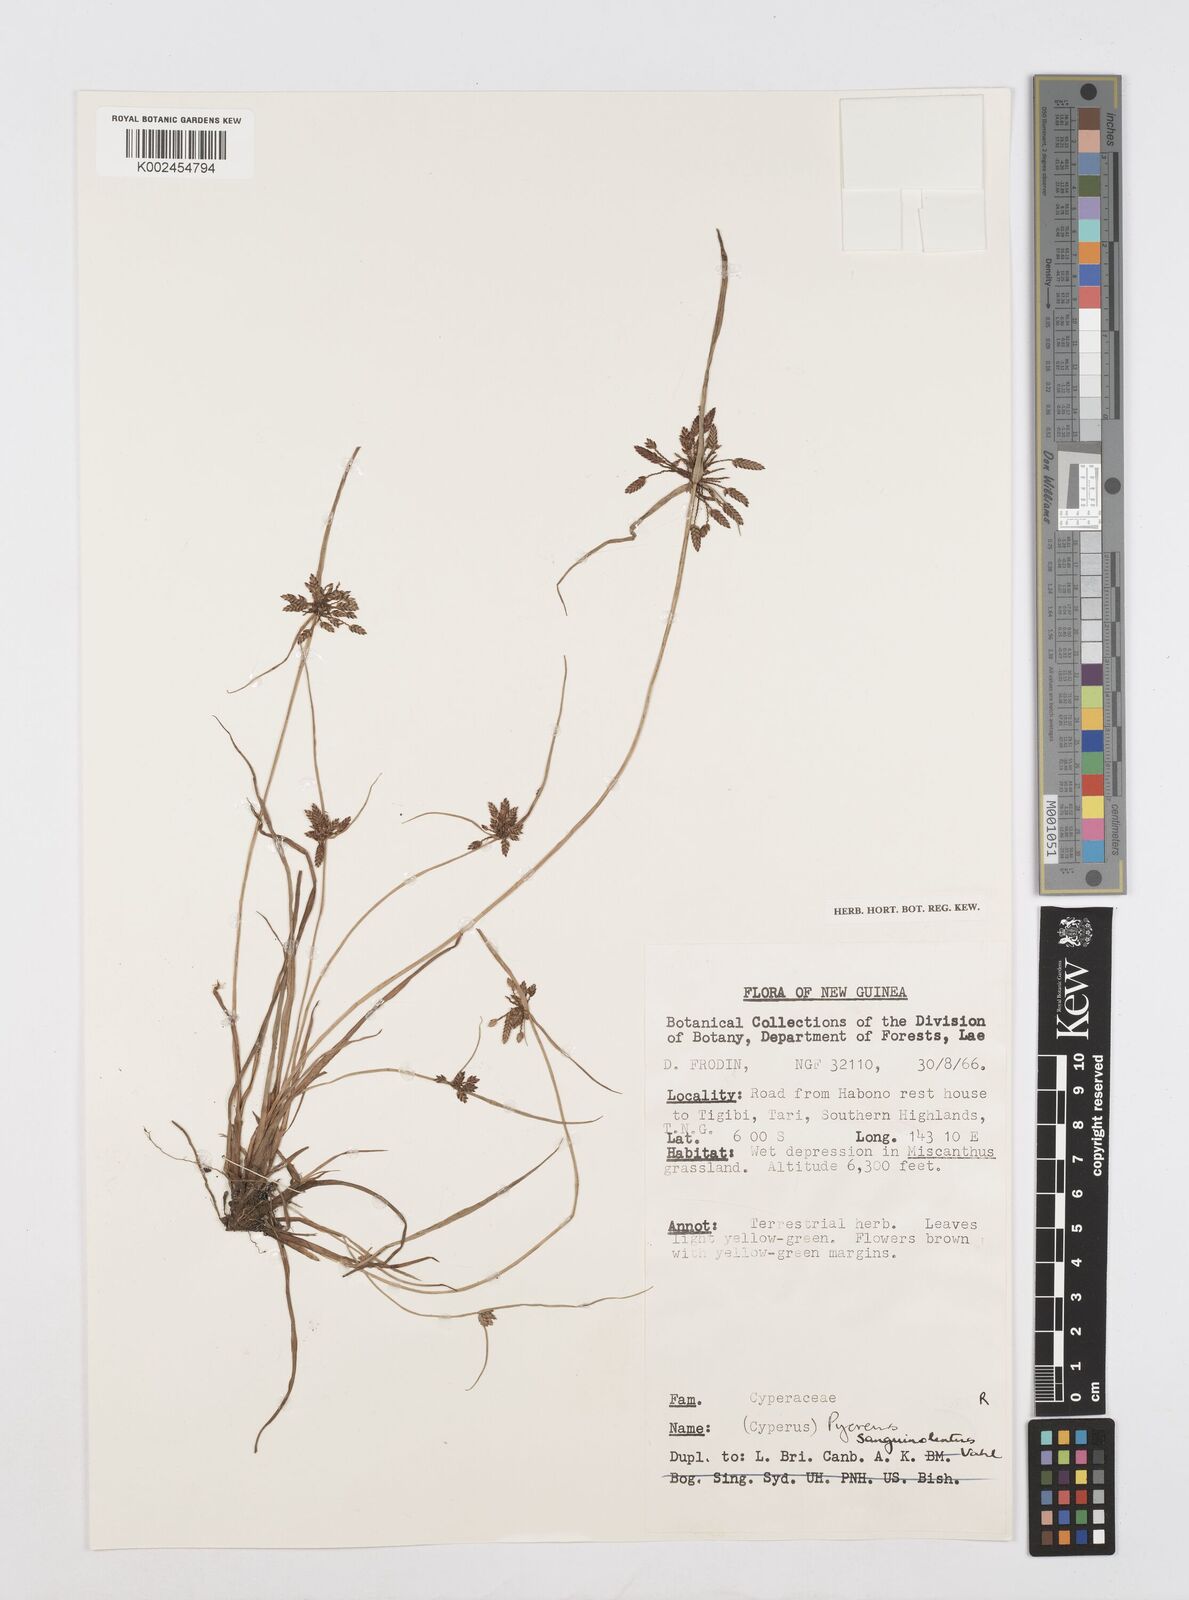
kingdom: Plantae
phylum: Tracheophyta
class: Liliopsida
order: Poales
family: Cyperaceae
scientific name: Cyperaceae
